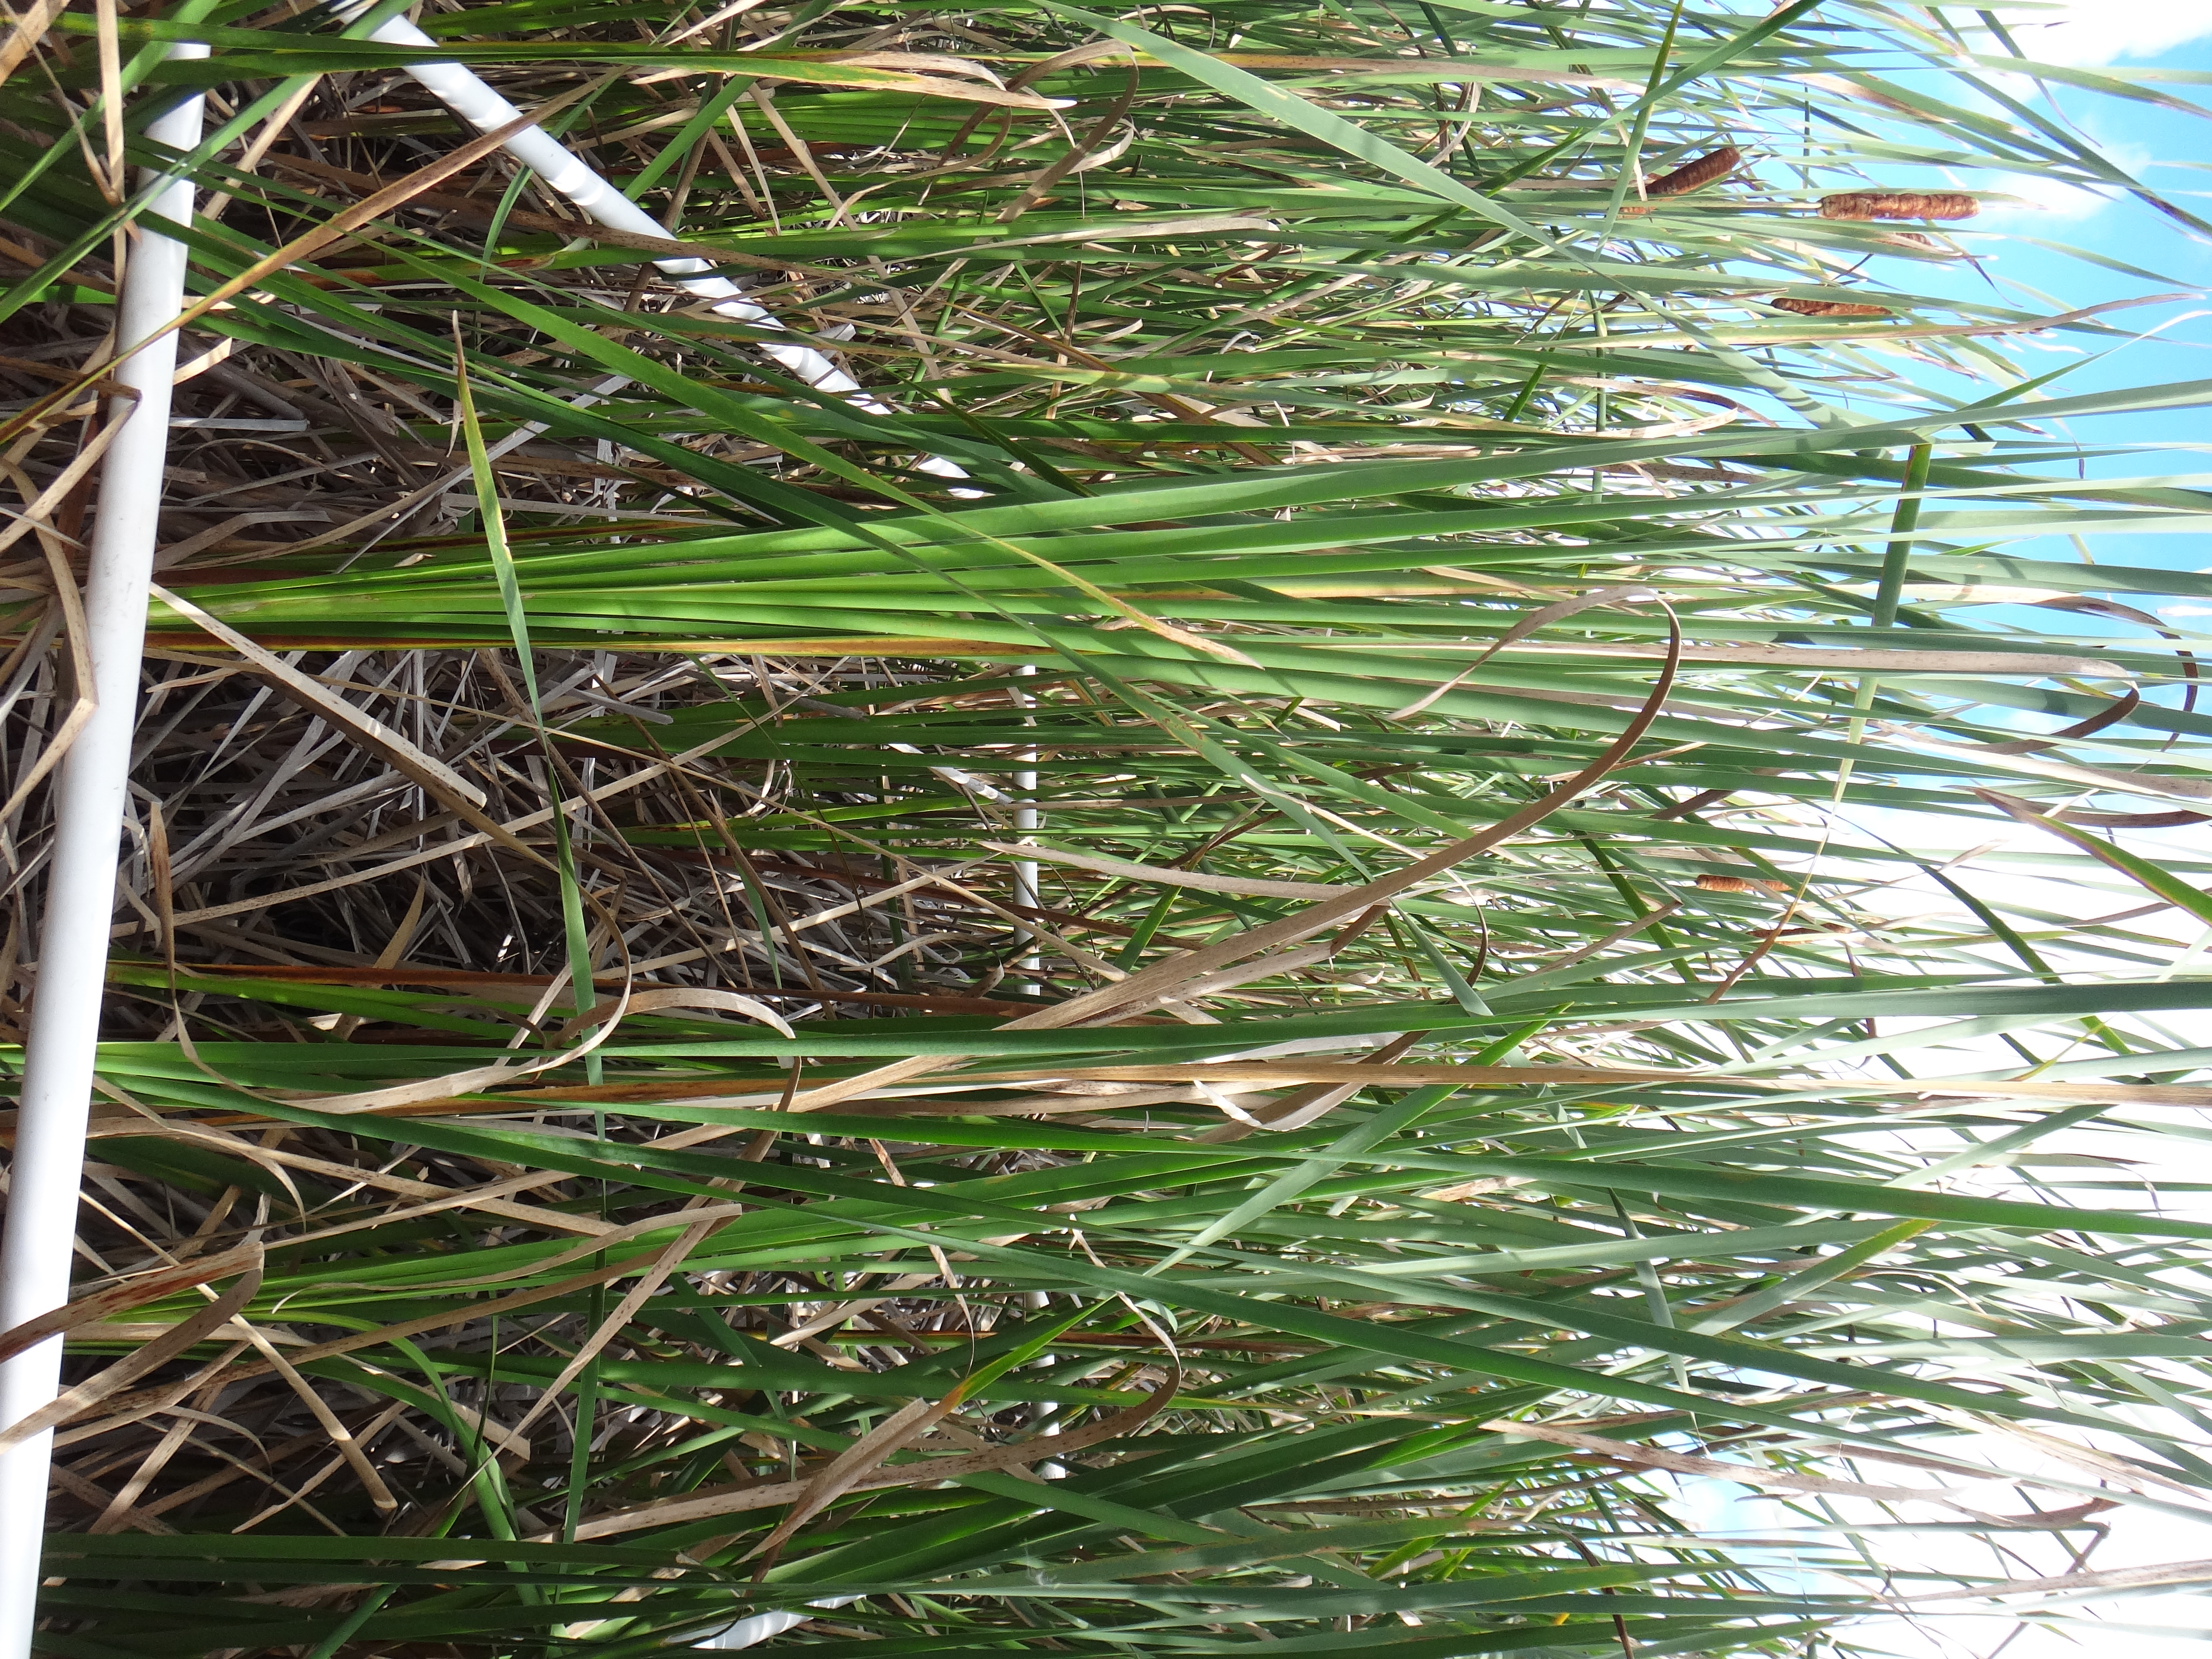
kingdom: Plantae
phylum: Tracheophyta
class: Polypodiopsida
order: Polypodiales
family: Thelypteridaceae
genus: Thelypteris
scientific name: Thelypteris palustris
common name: Marsh fern
